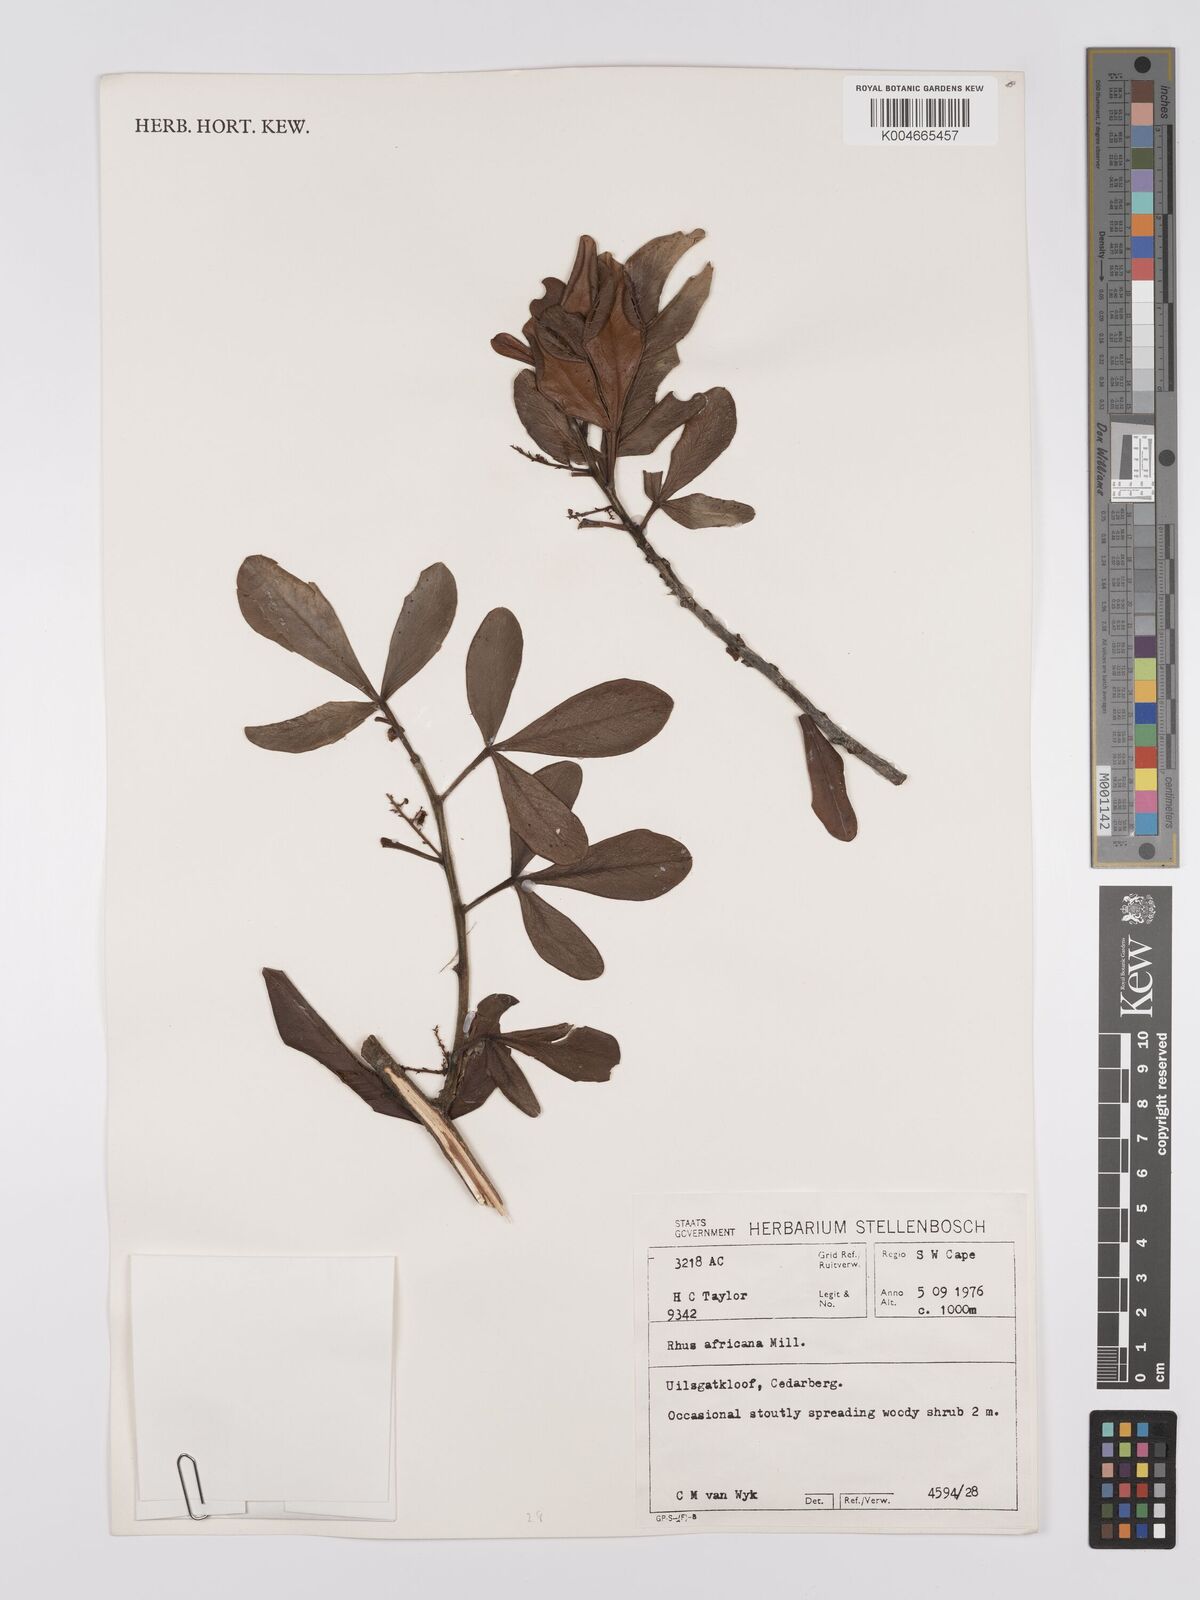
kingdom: Plantae
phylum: Tracheophyta
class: Magnoliopsida
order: Sapindales
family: Anacardiaceae
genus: Searsia
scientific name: Searsia lucida
